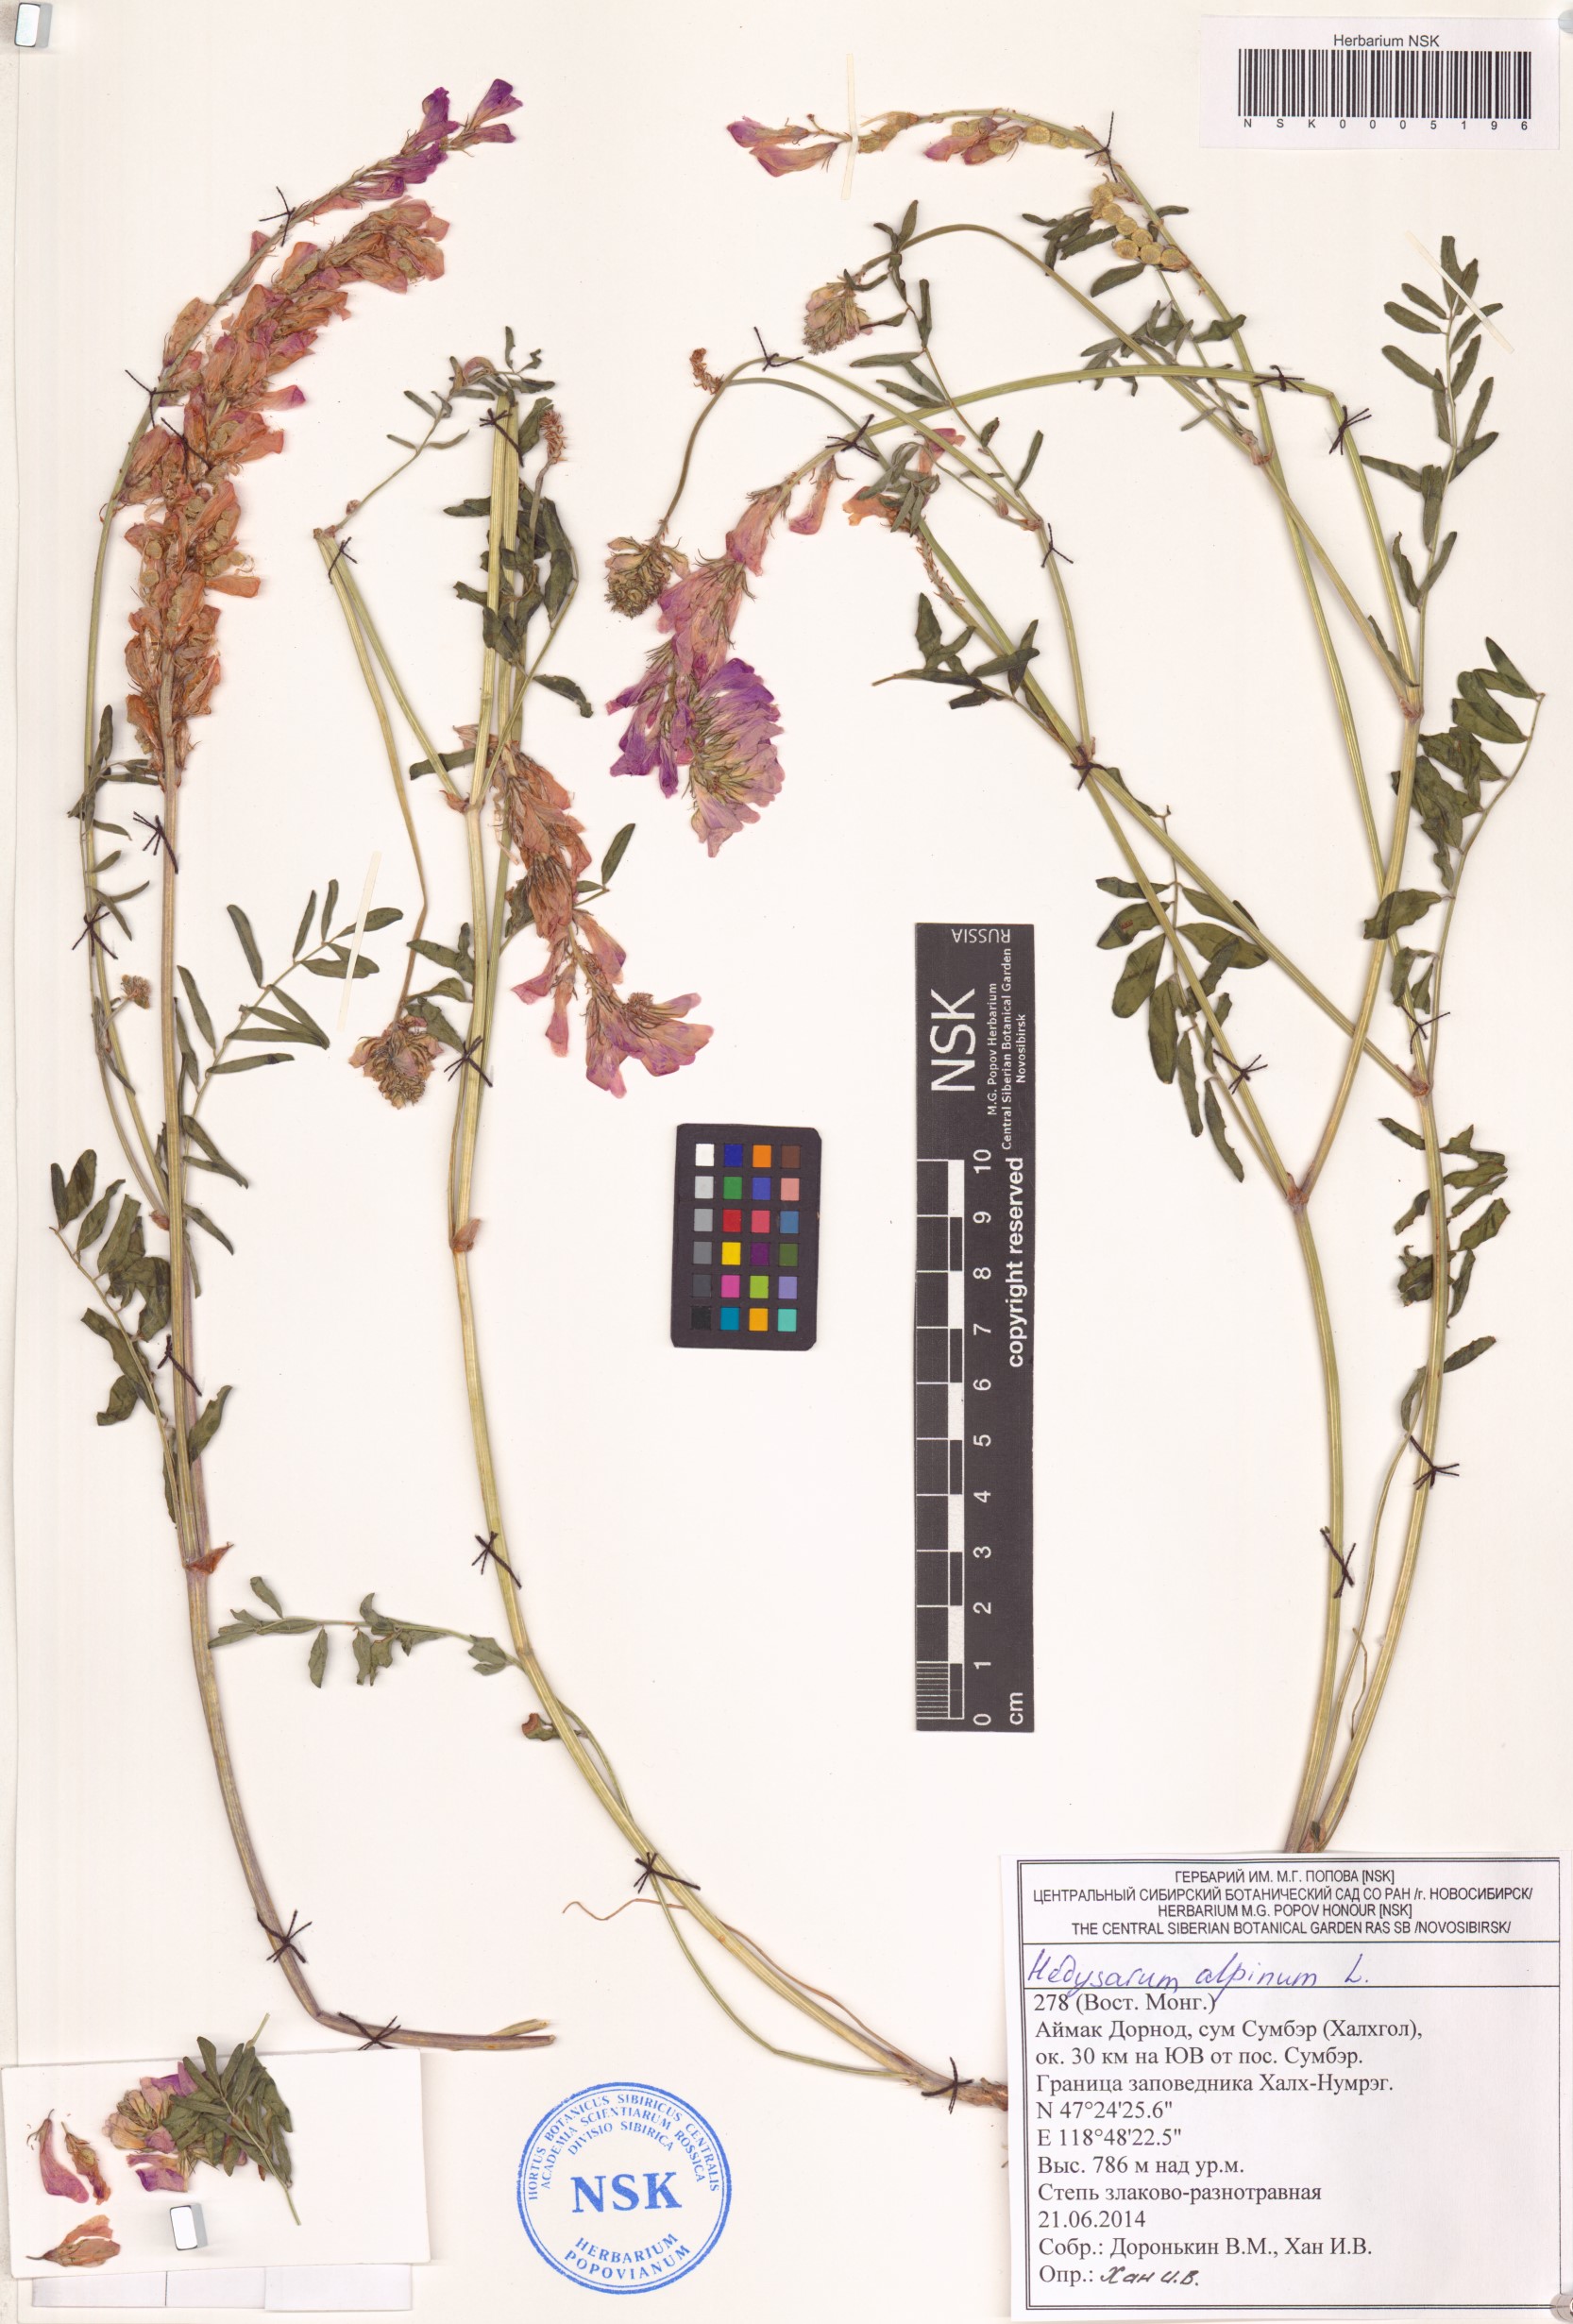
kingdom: Plantae
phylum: Tracheophyta
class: Magnoliopsida
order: Fabales
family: Fabaceae
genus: Hedysarum
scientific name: Hedysarum alpinum
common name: Alpine sweet-vetch
